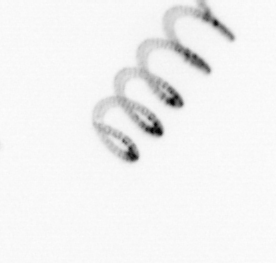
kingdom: Chromista
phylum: Ochrophyta
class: Bacillariophyceae
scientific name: Bacillariophyceae
